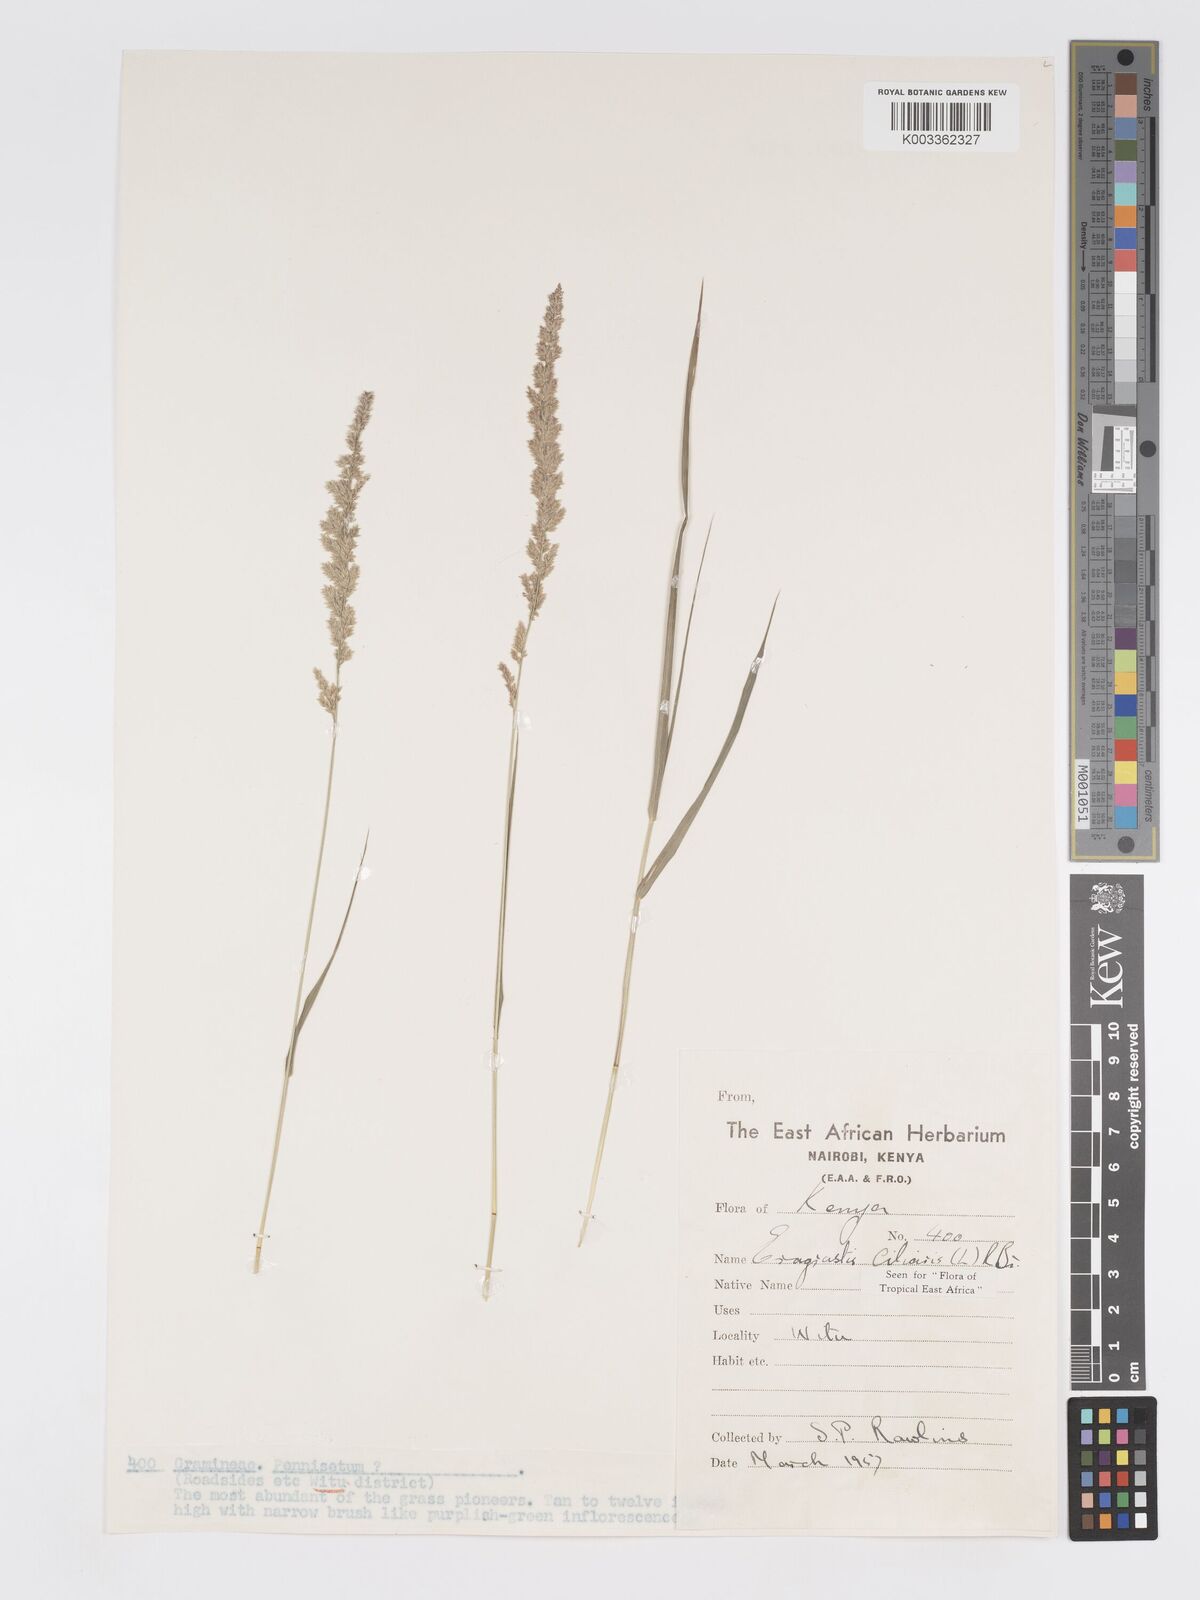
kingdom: Plantae
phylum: Tracheophyta
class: Liliopsida
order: Poales
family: Poaceae
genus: Eragrostis
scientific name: Eragrostis ciliaris
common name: Gophertail lovegrass
